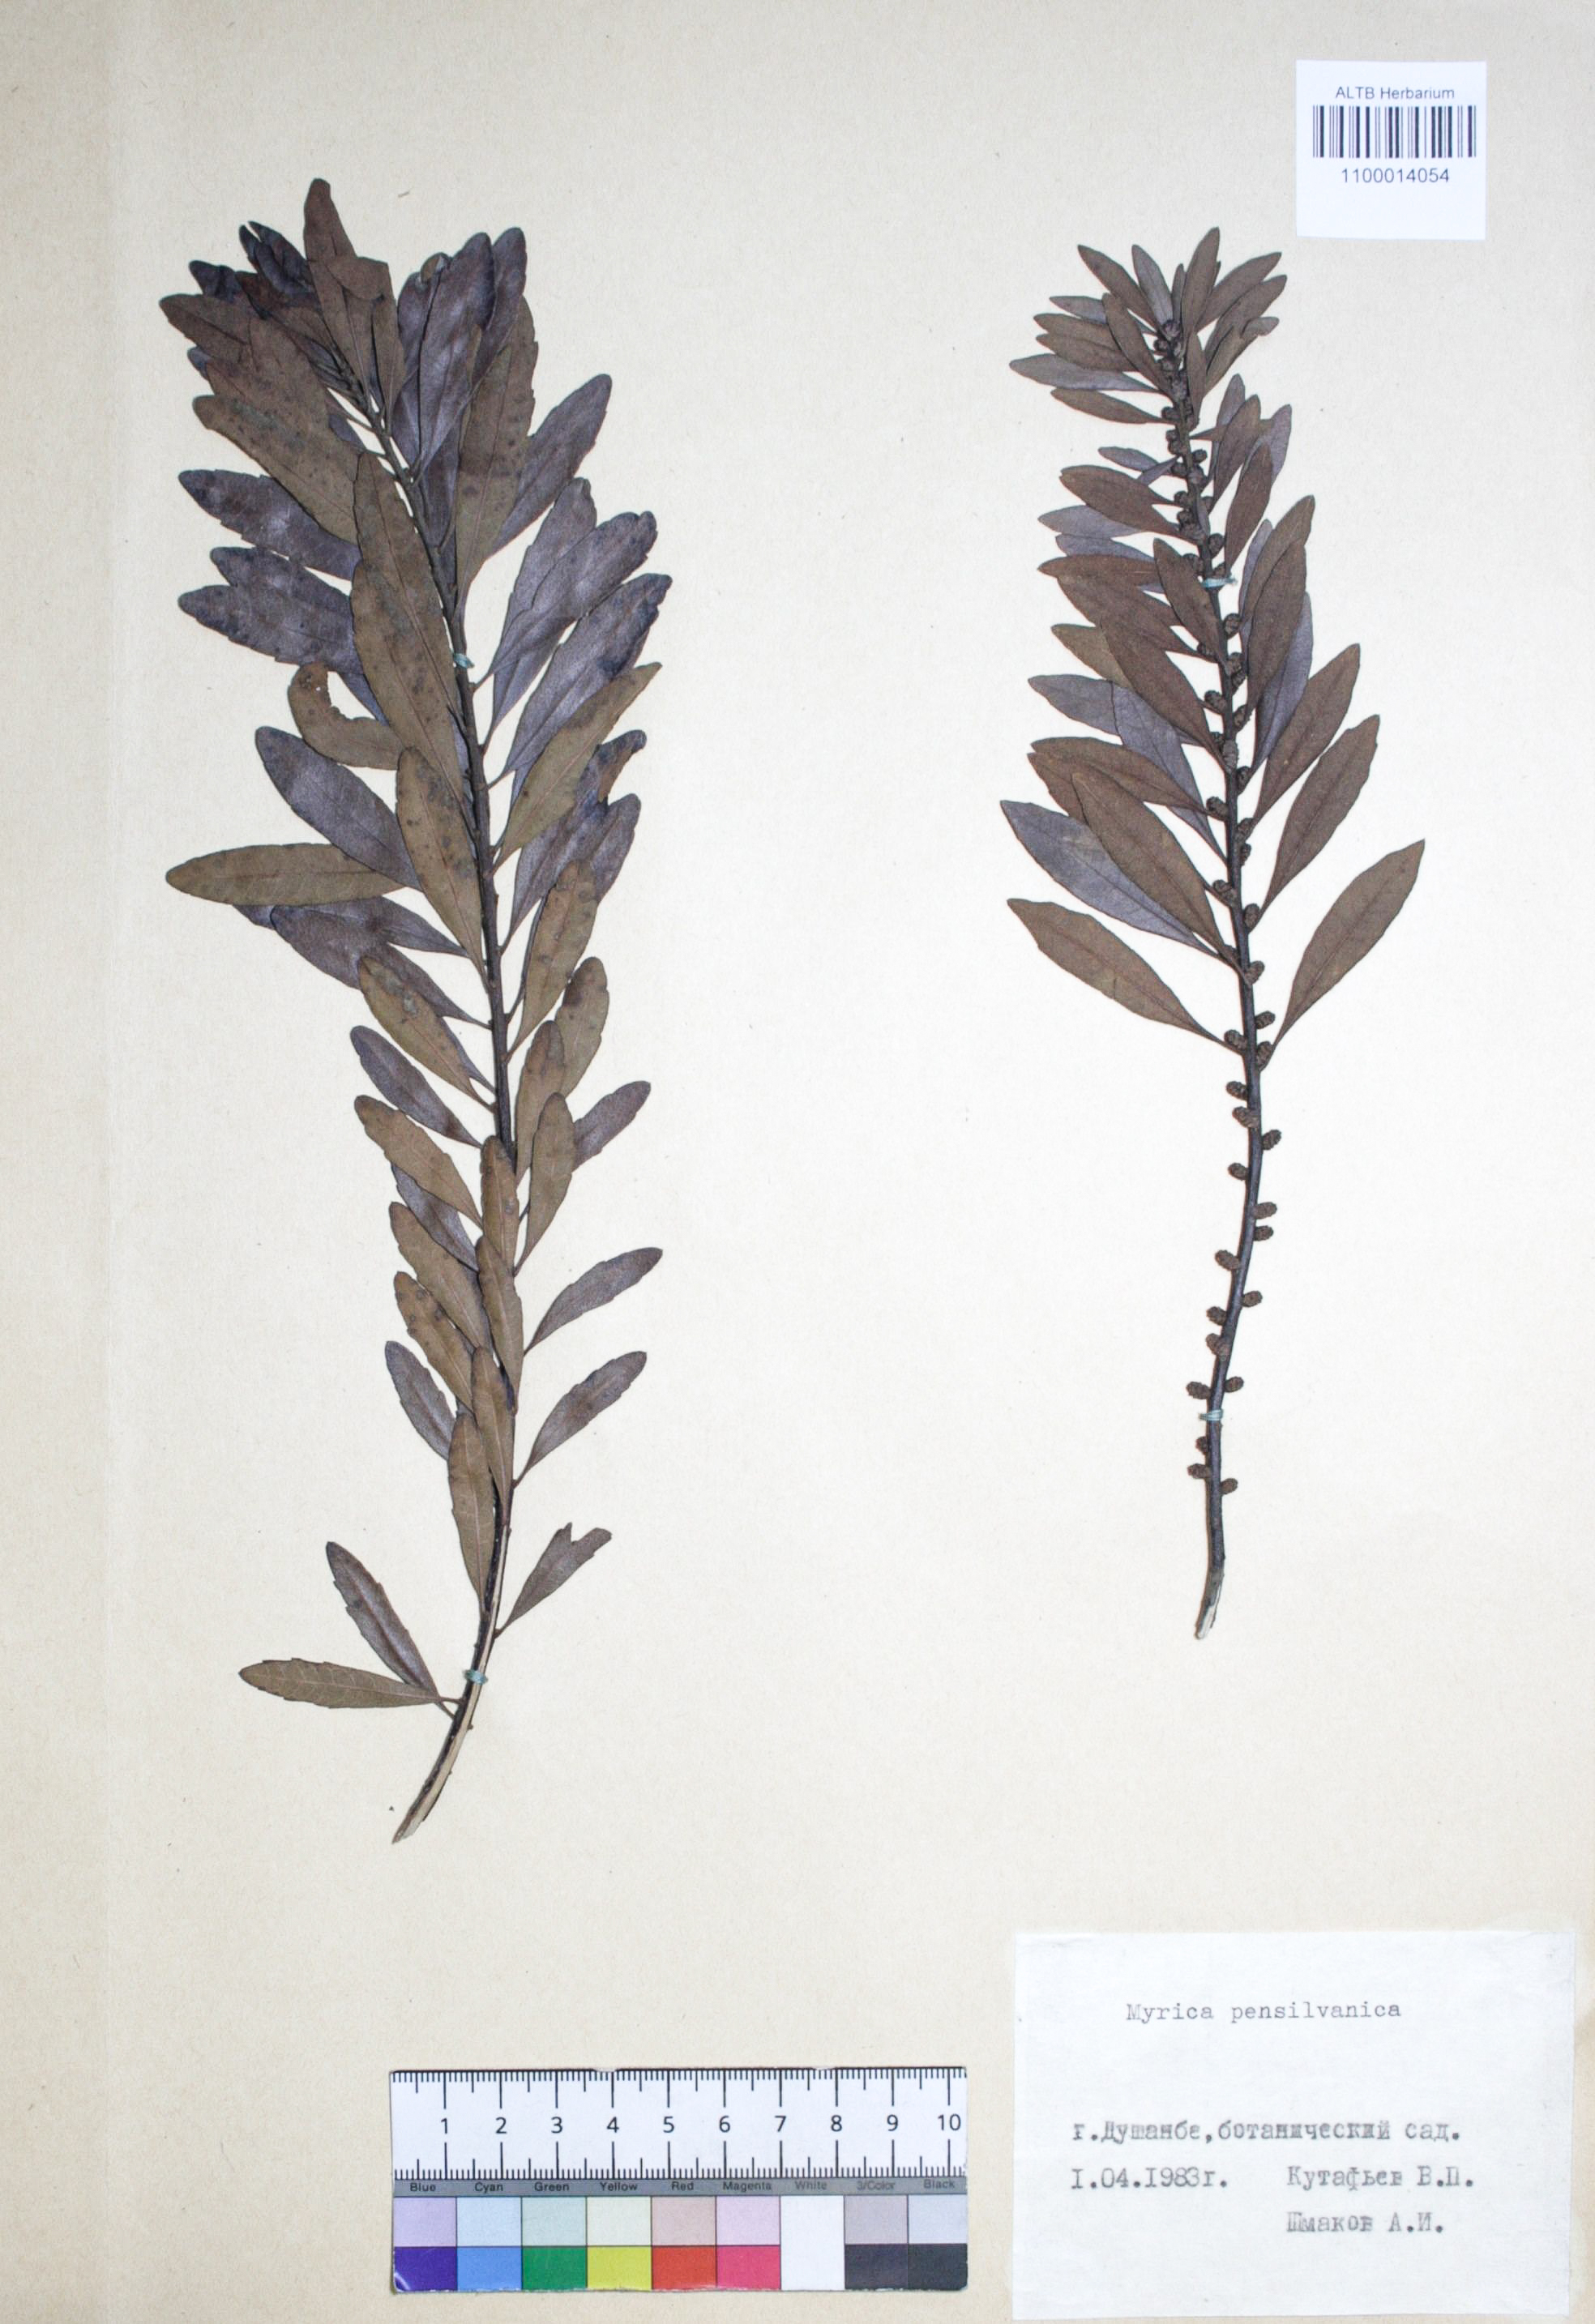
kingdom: Plantae
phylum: Tracheophyta
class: Magnoliopsida
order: Fagales
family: Myricaceae
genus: Morella
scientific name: Morella pensylvanica
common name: Northern bayberry
